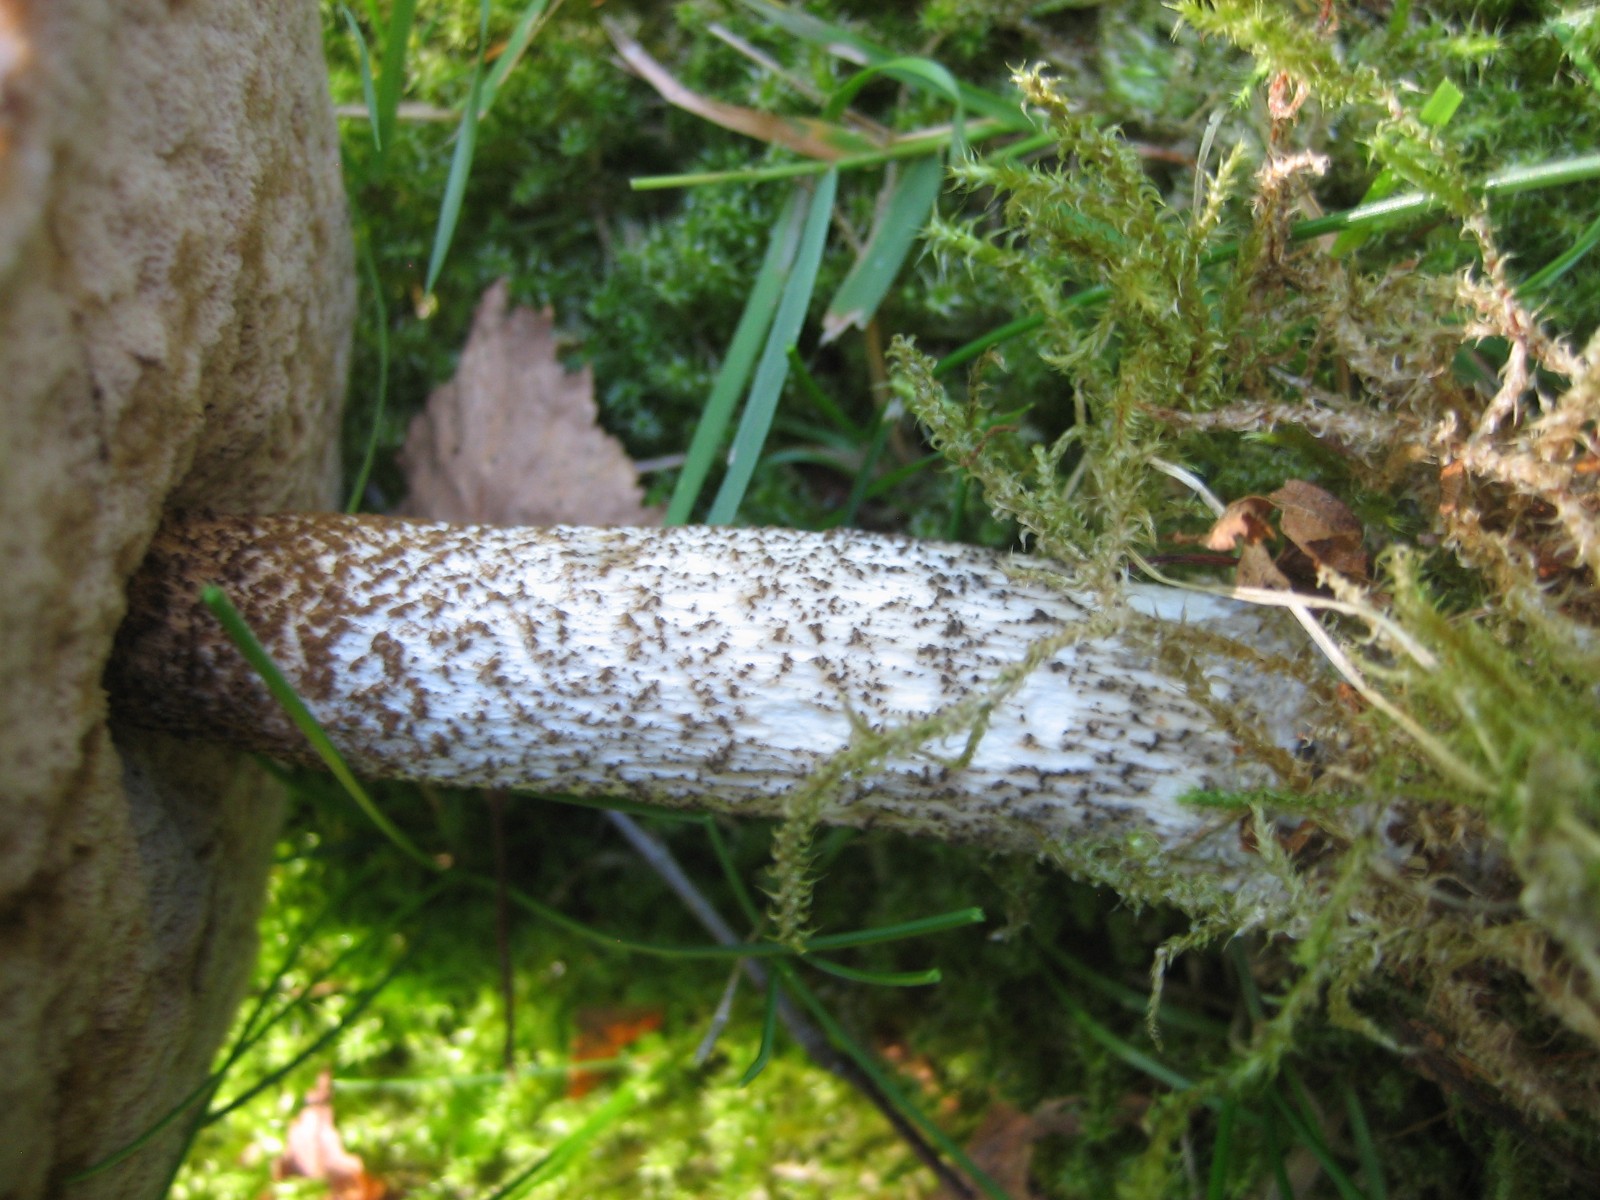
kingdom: Fungi
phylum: Basidiomycota
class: Agaricomycetes
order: Boletales
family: Boletaceae
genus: Leccinum
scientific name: Leccinum scabrum
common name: brun skælrørhat
